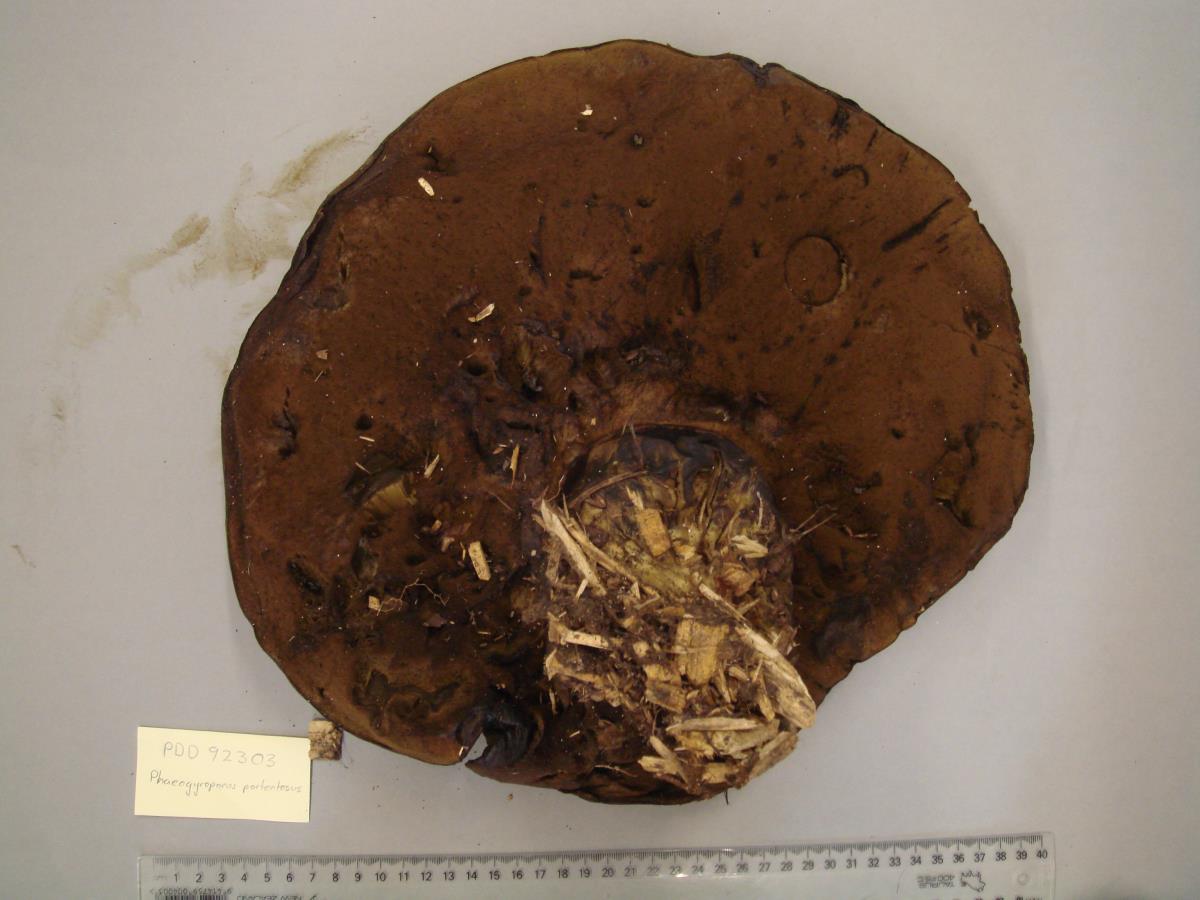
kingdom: Fungi
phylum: Basidiomycota
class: Agaricomycetes
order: Boletales
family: Boletinellaceae
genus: Phlebopus
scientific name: Phlebopus portentosus
